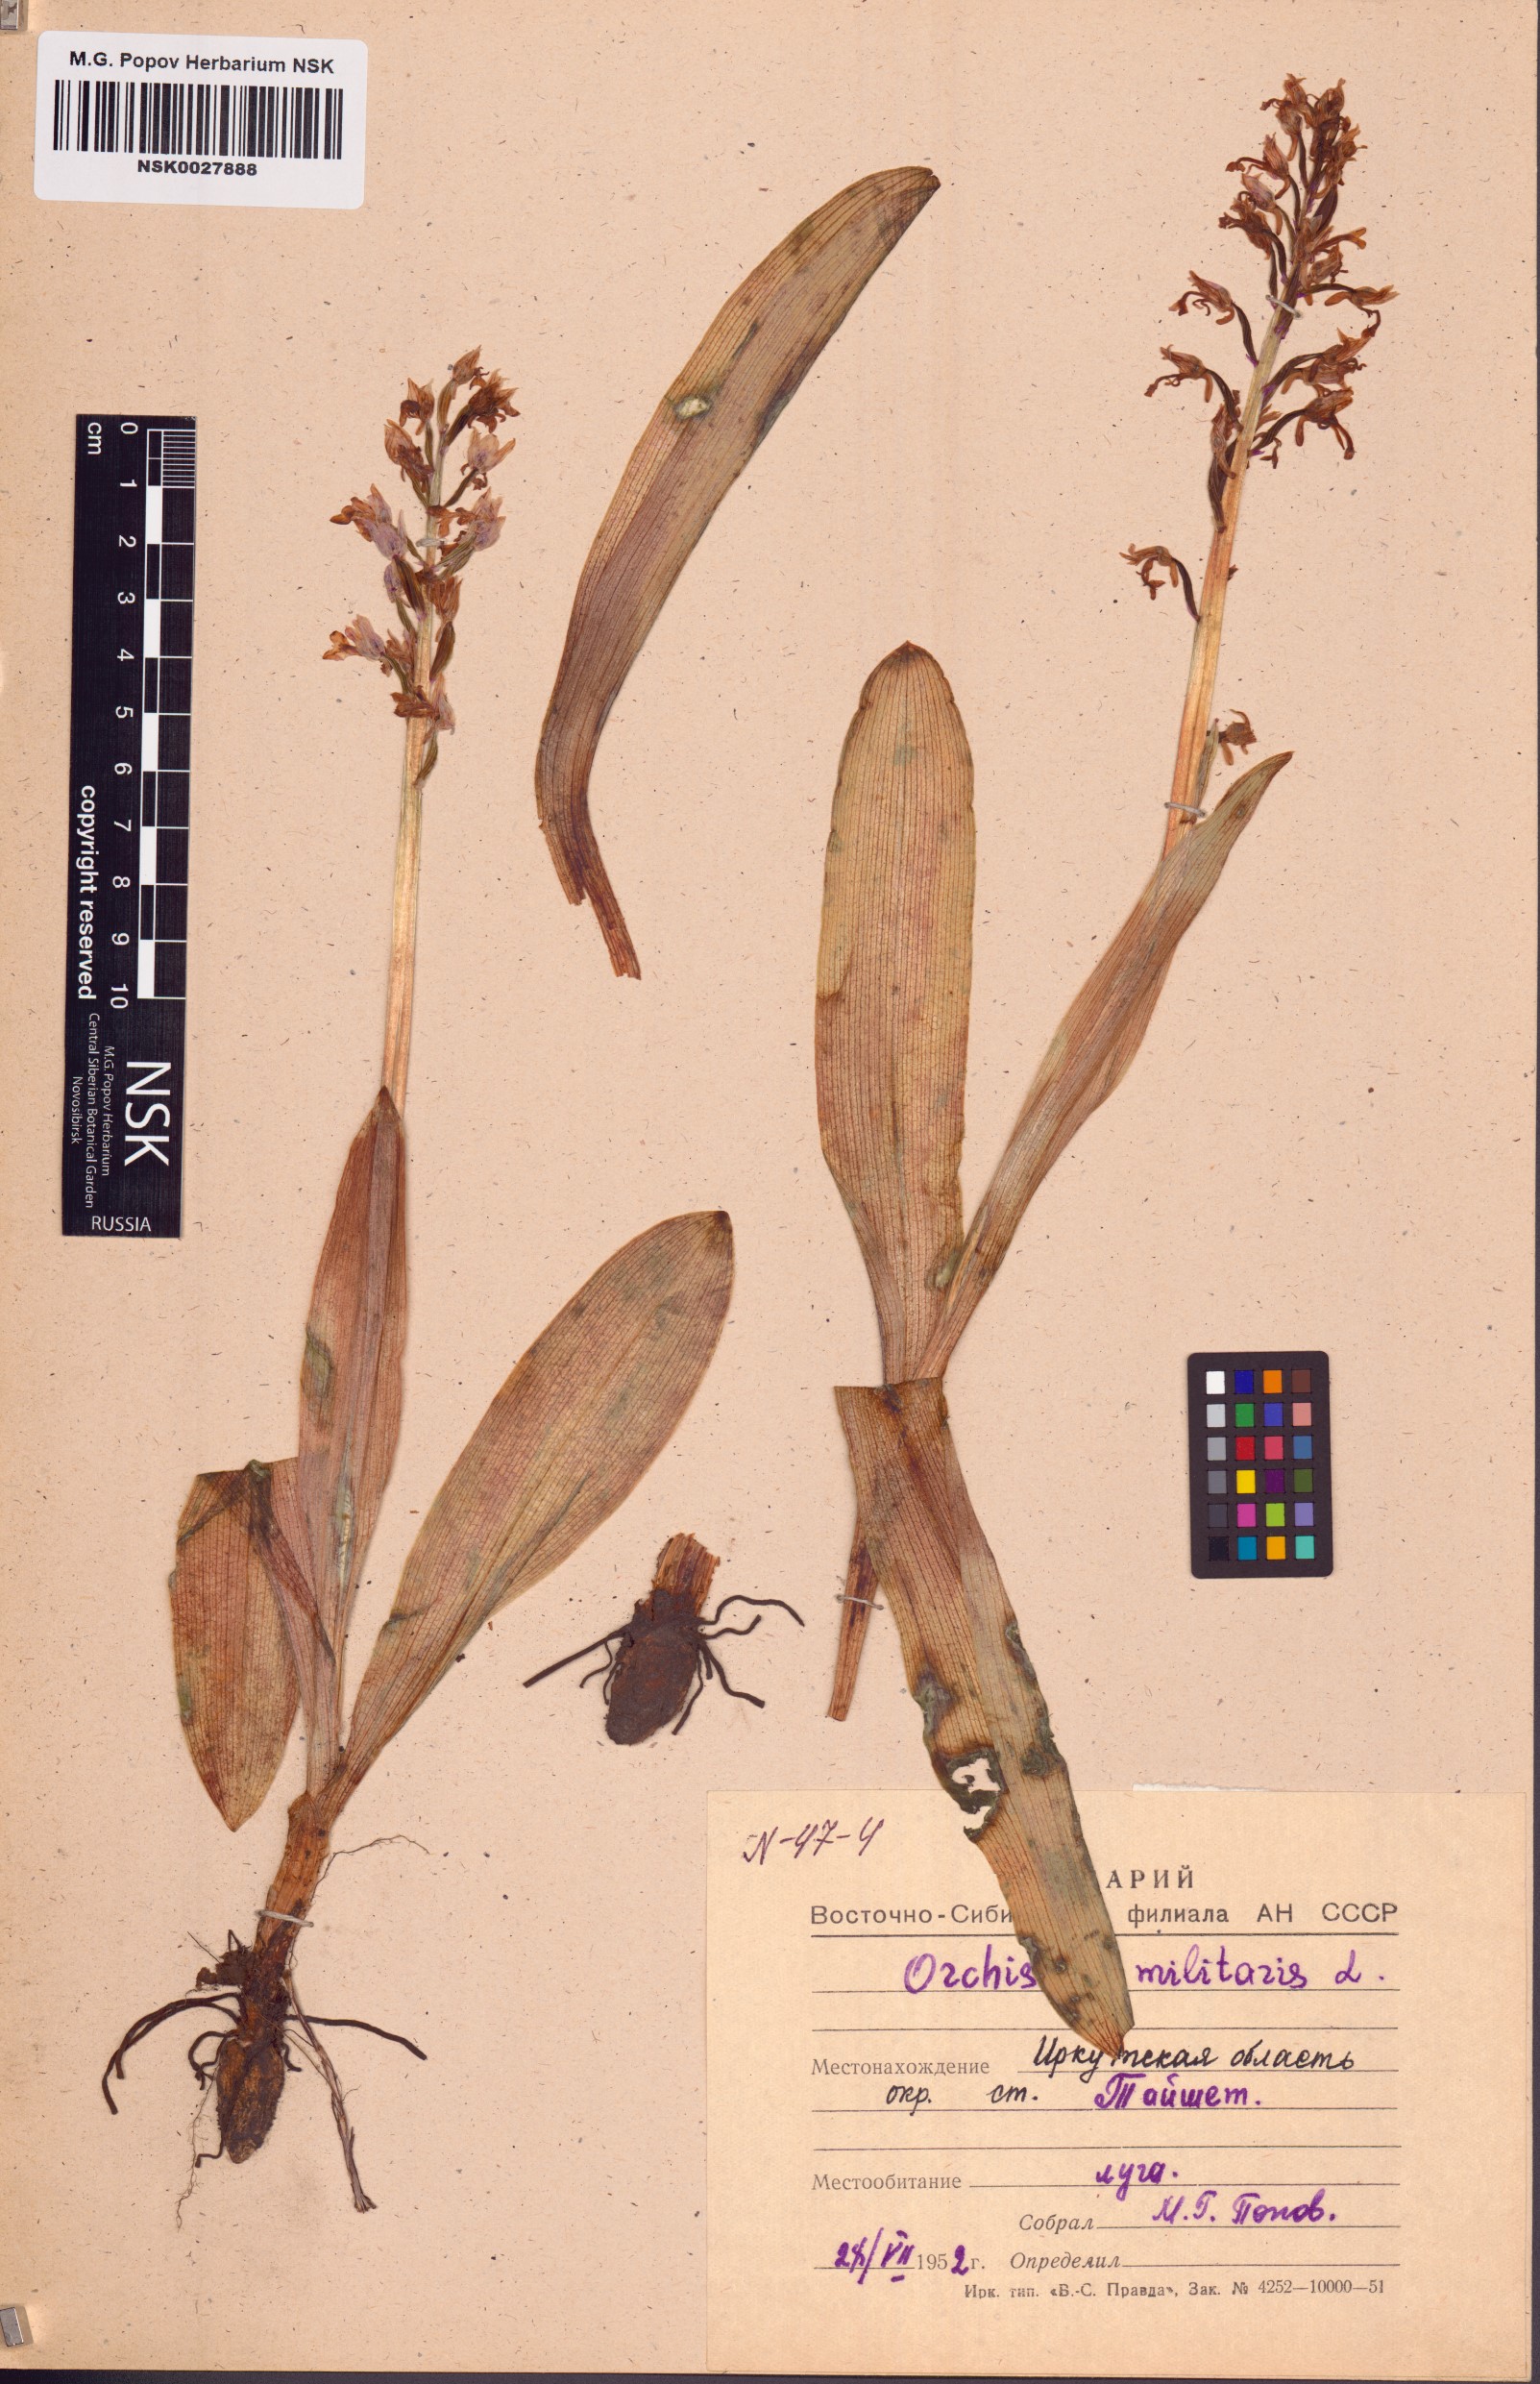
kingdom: Plantae
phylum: Tracheophyta
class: Liliopsida
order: Asparagales
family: Orchidaceae
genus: Orchis
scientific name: Orchis militaris
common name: Military orchid
